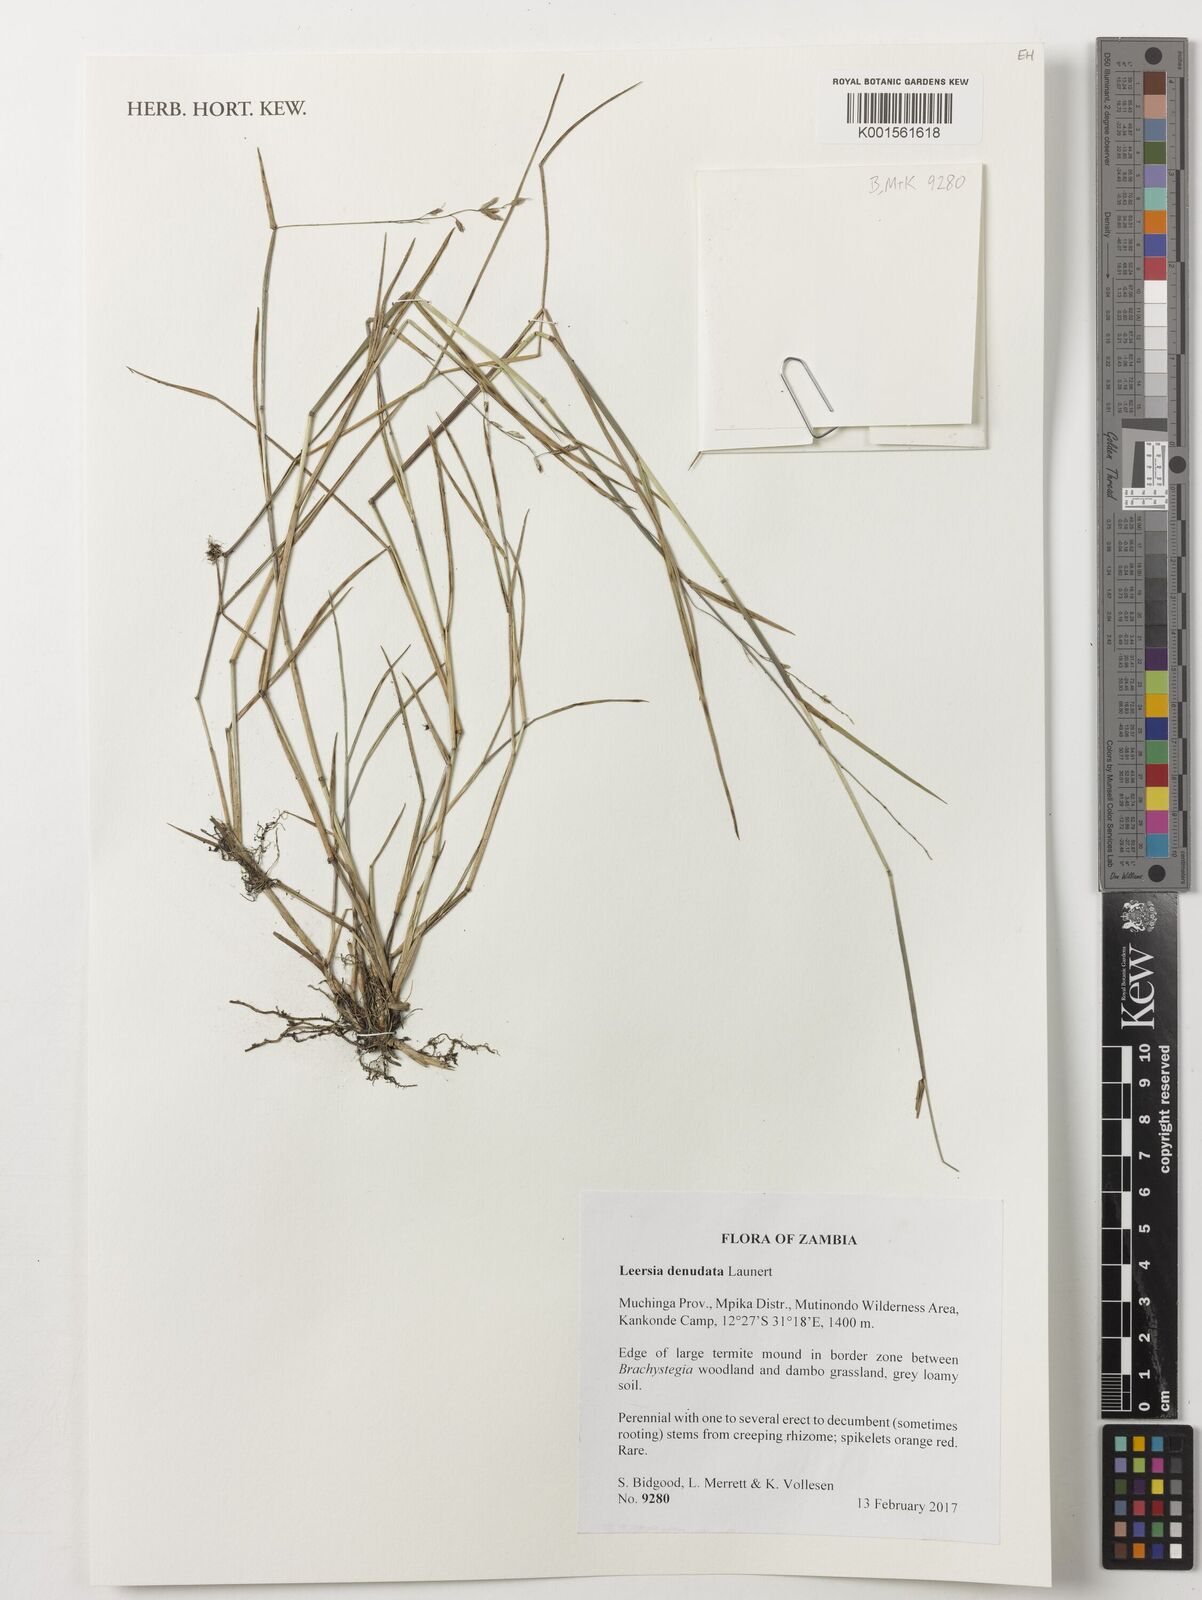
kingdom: Plantae
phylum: Tracheophyta
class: Liliopsida
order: Poales
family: Poaceae
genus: Leersia
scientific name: Leersia denudata
